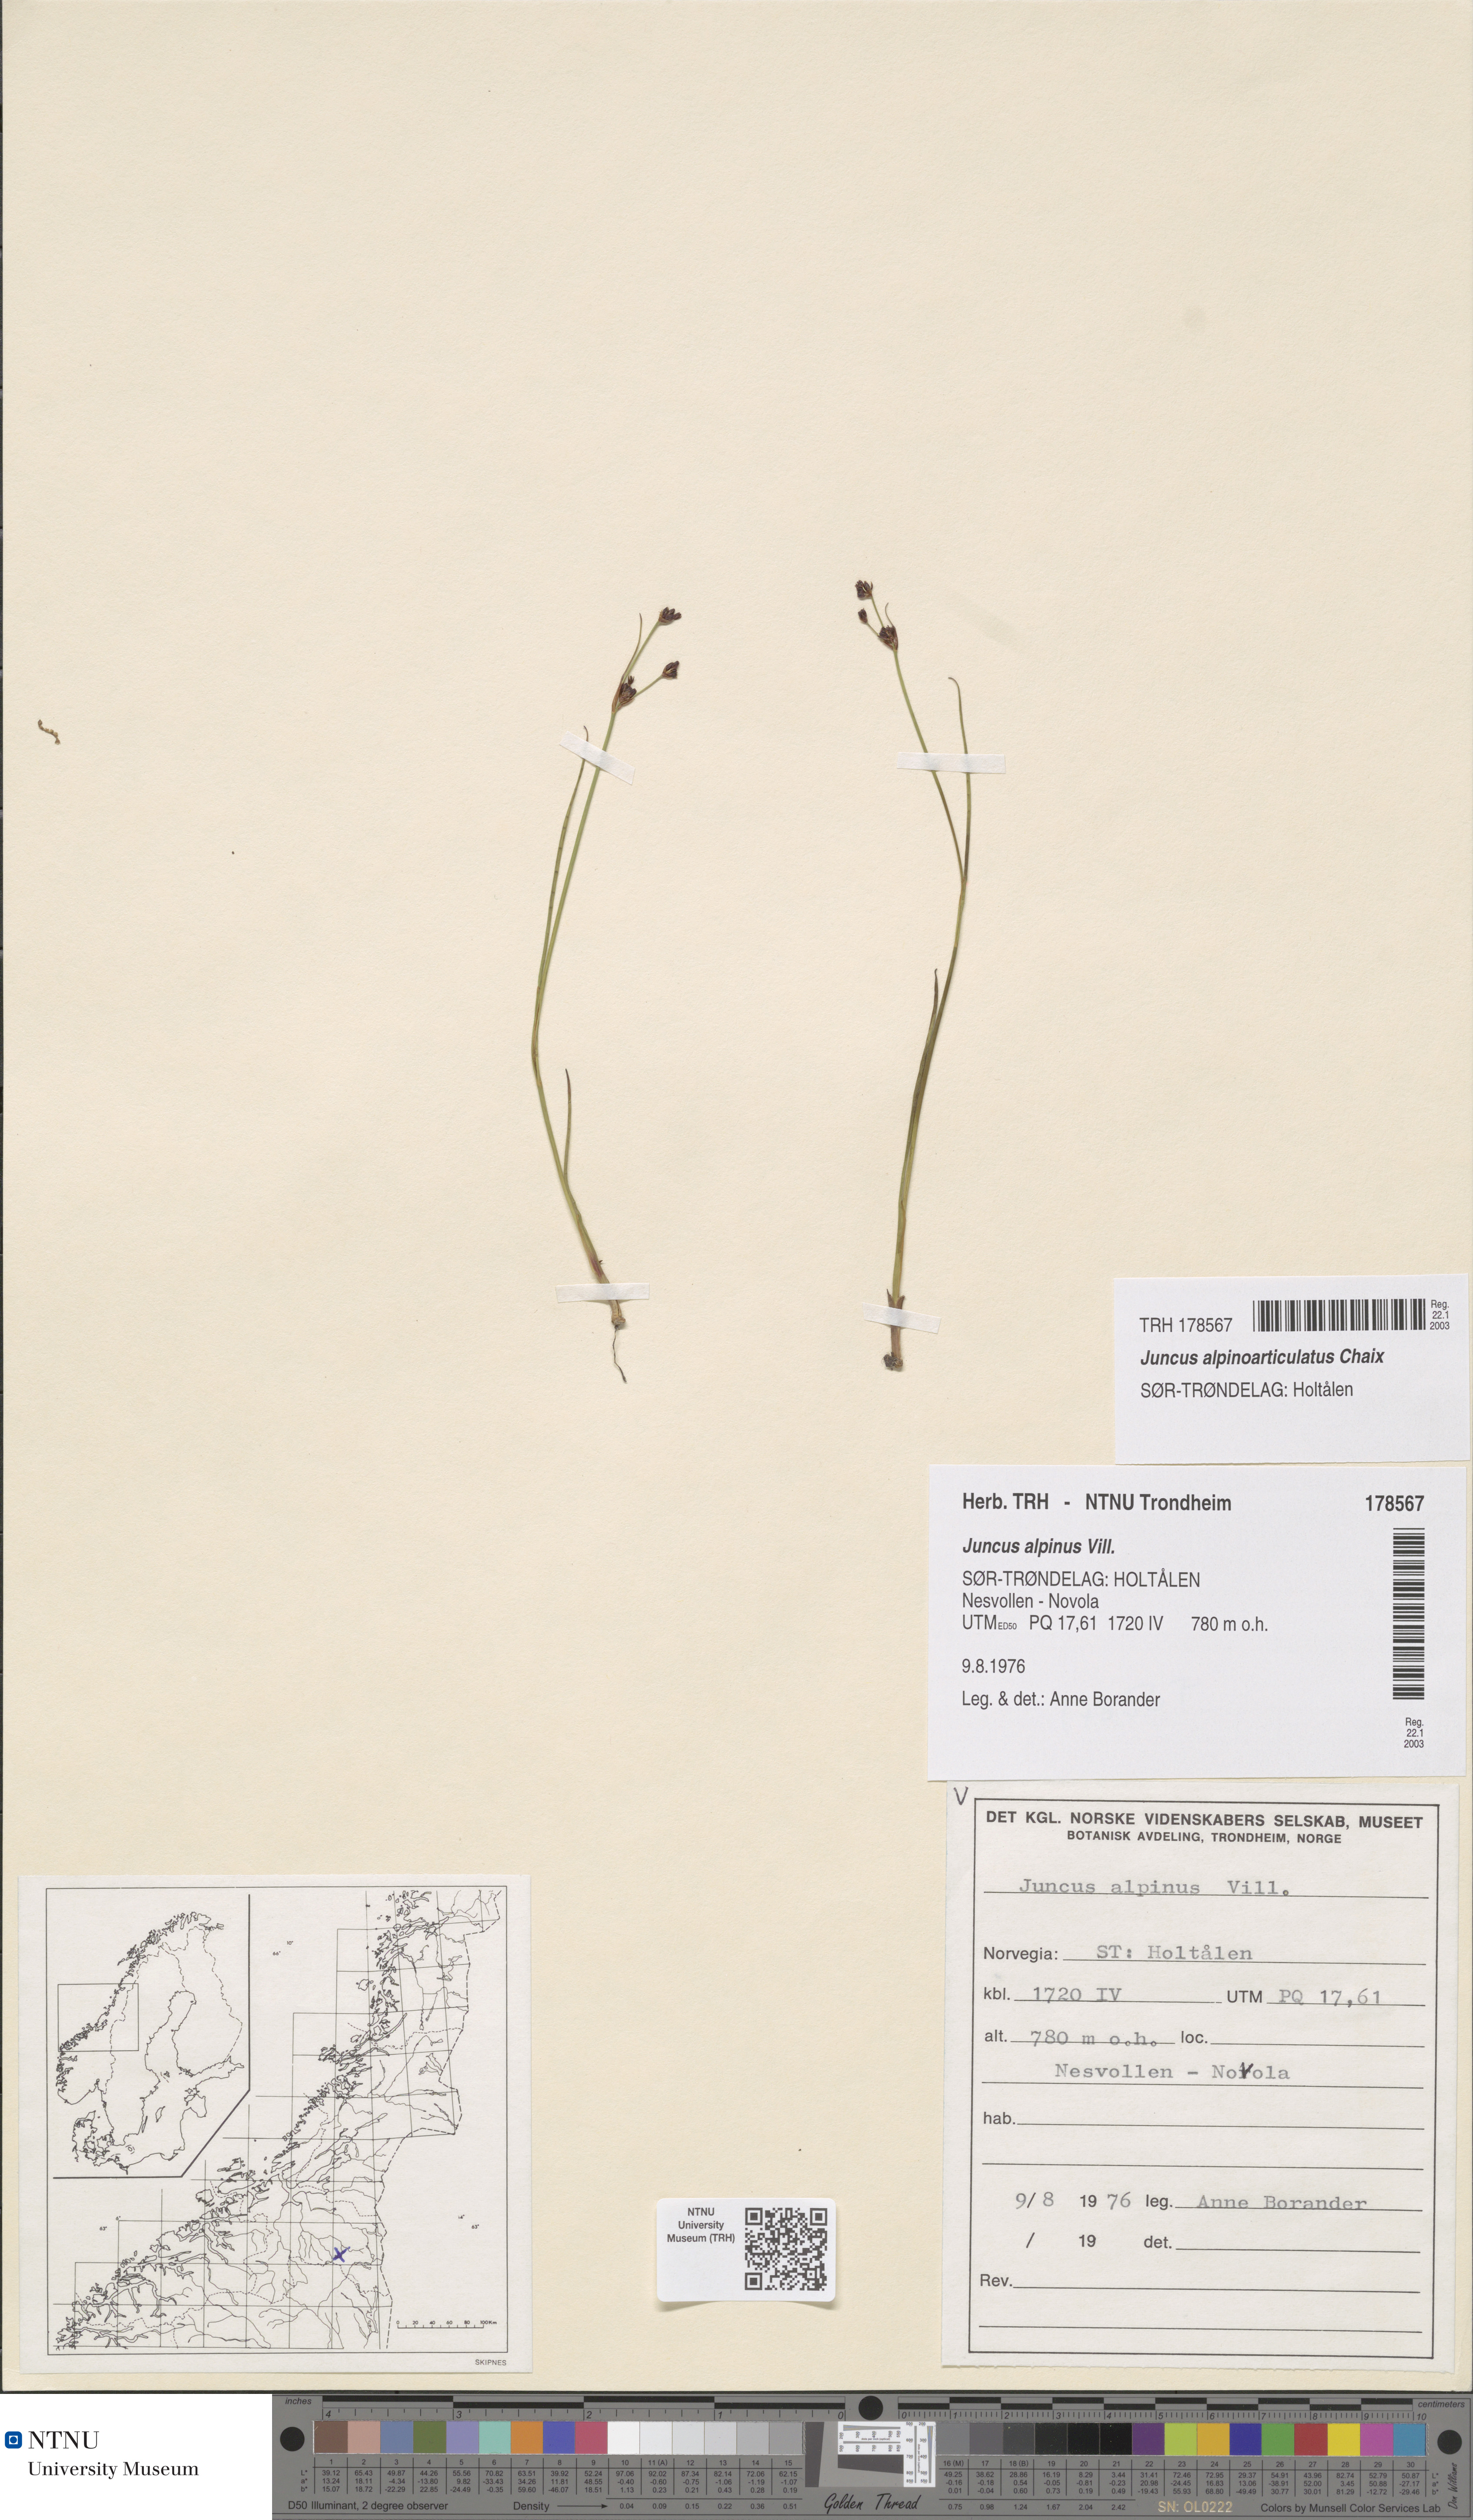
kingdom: Plantae
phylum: Tracheophyta
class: Liliopsida
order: Poales
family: Juncaceae
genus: Juncus
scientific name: Juncus alpinoarticulatus
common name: Alpine rush
